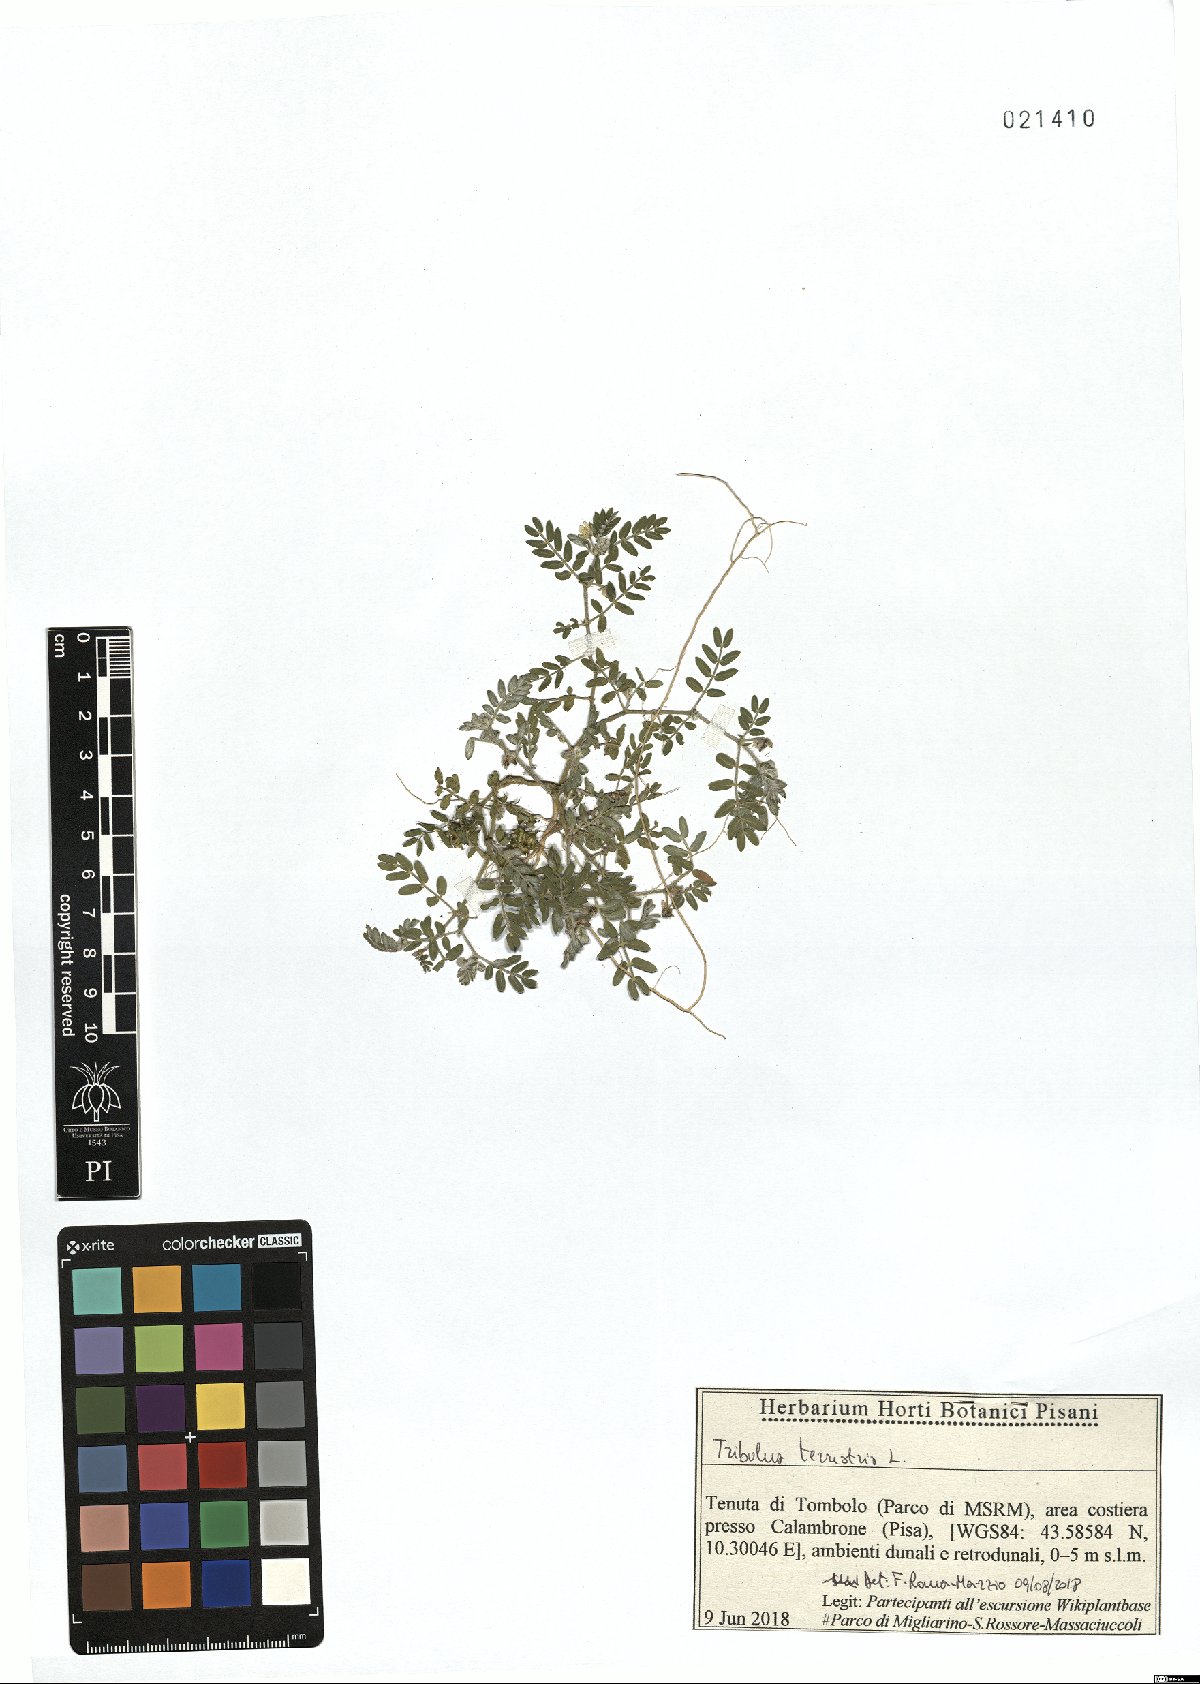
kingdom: Plantae
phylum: Tracheophyta
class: Magnoliopsida
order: Zygophyllales
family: Zygophyllaceae
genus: Tribulus
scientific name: Tribulus terrestris
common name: Puncturevine
